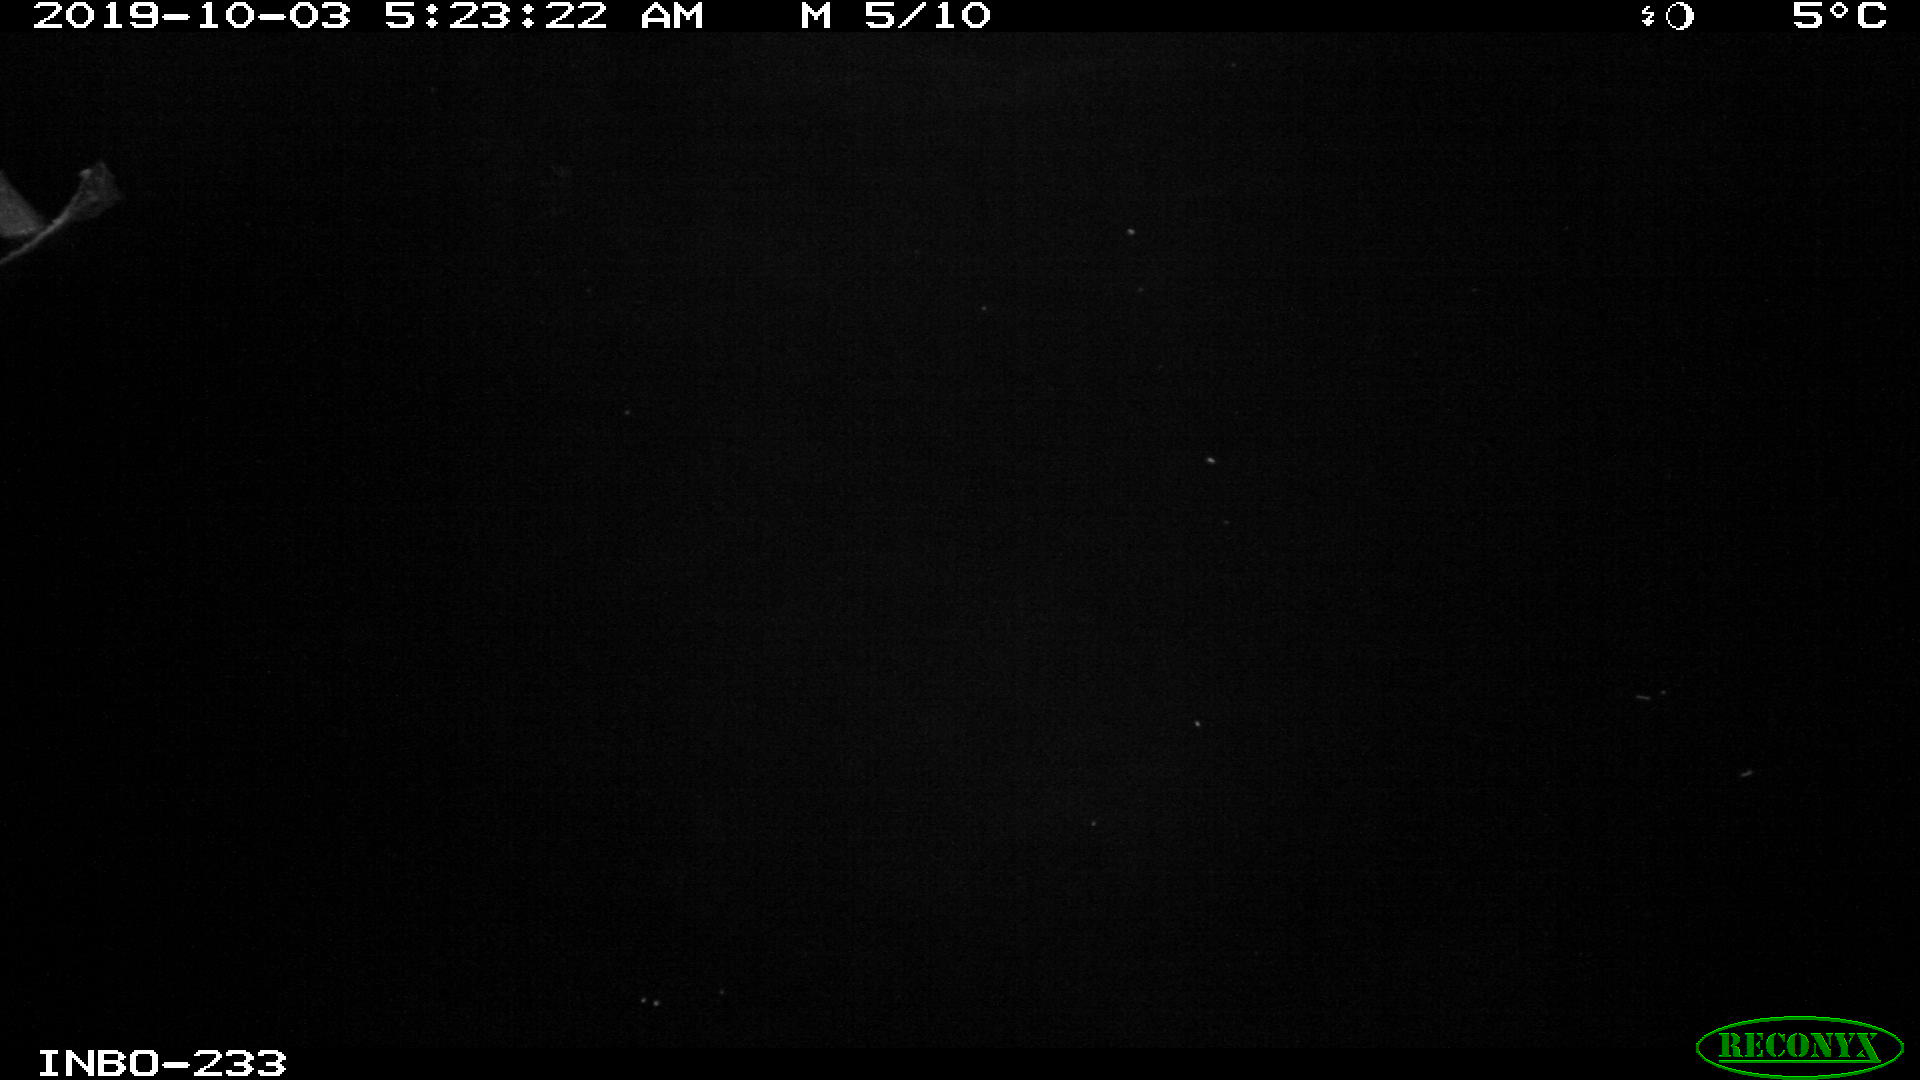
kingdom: Animalia
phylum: Chordata
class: Aves
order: Anseriformes
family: Anatidae
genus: Anas
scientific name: Anas platyrhynchos
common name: Mallard
